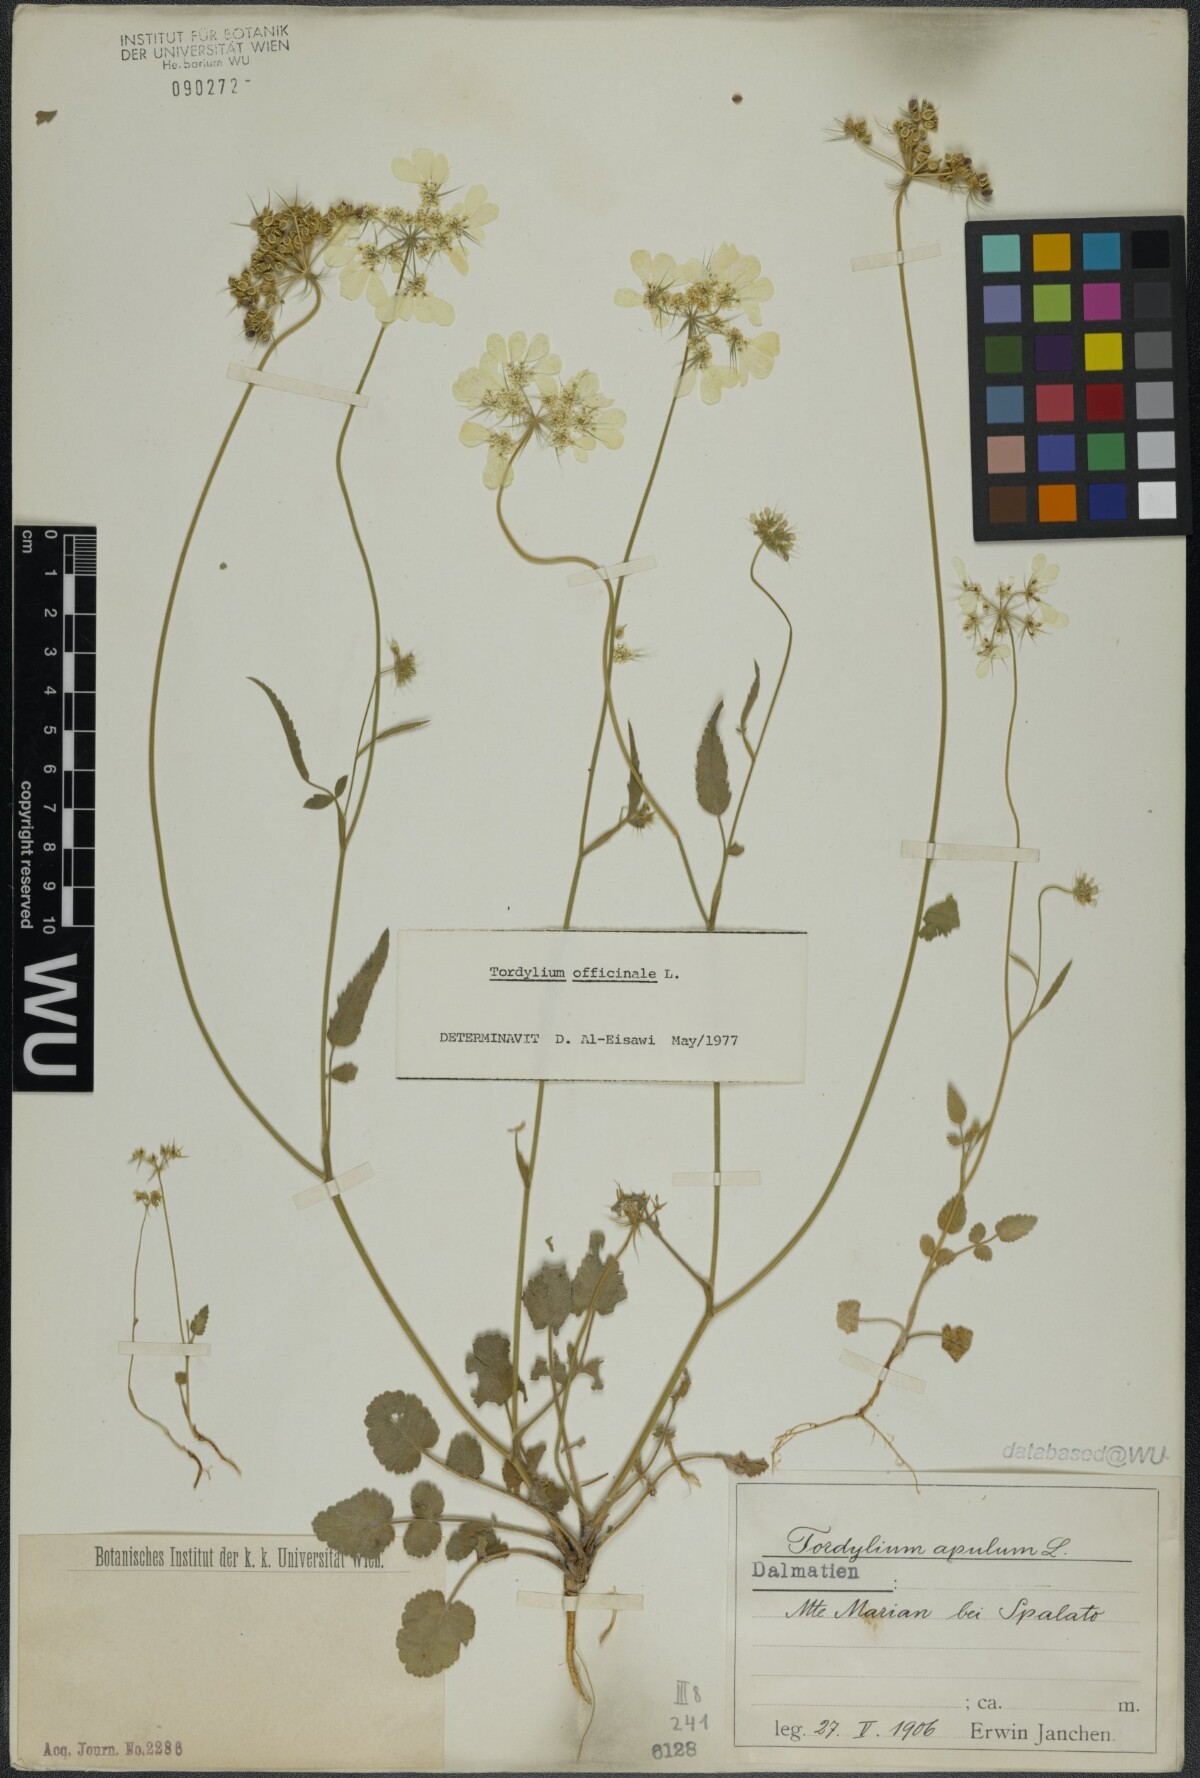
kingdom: Plantae
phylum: Tracheophyta
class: Magnoliopsida
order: Apiales
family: Apiaceae
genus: Tordylium
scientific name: Tordylium officinale
